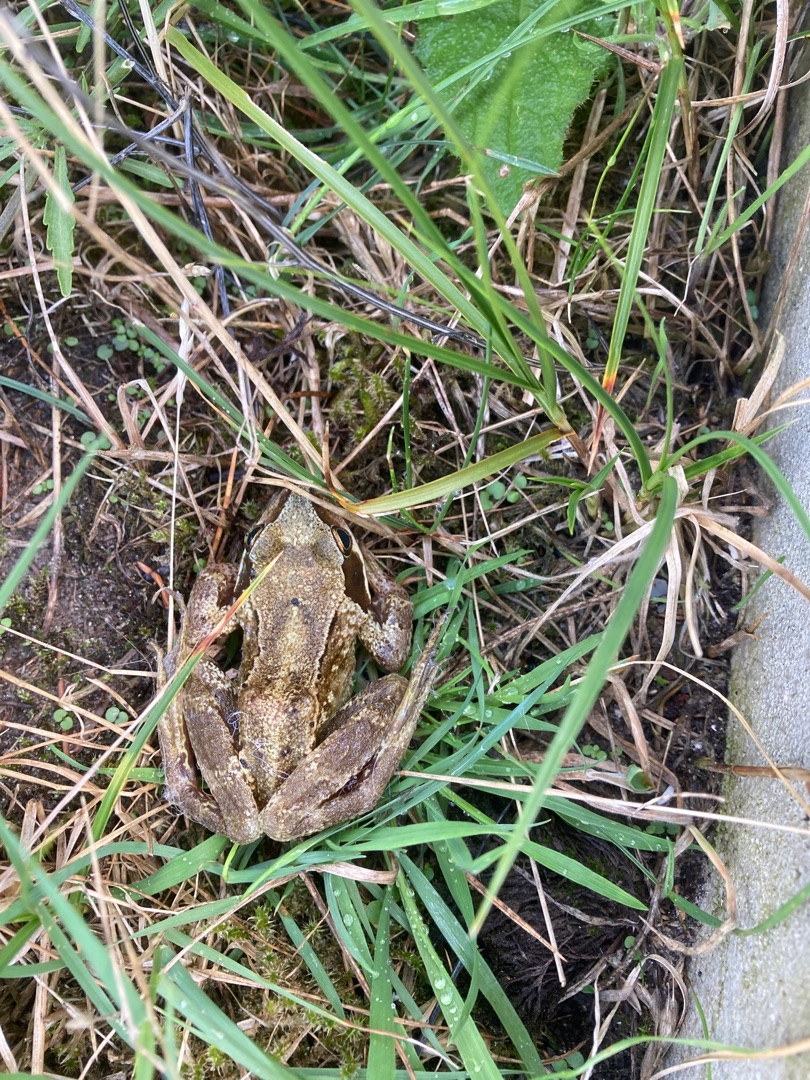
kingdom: Animalia
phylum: Chordata
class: Amphibia
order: Anura
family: Ranidae
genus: Rana
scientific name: Rana temporaria
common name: Butsnudet frø
